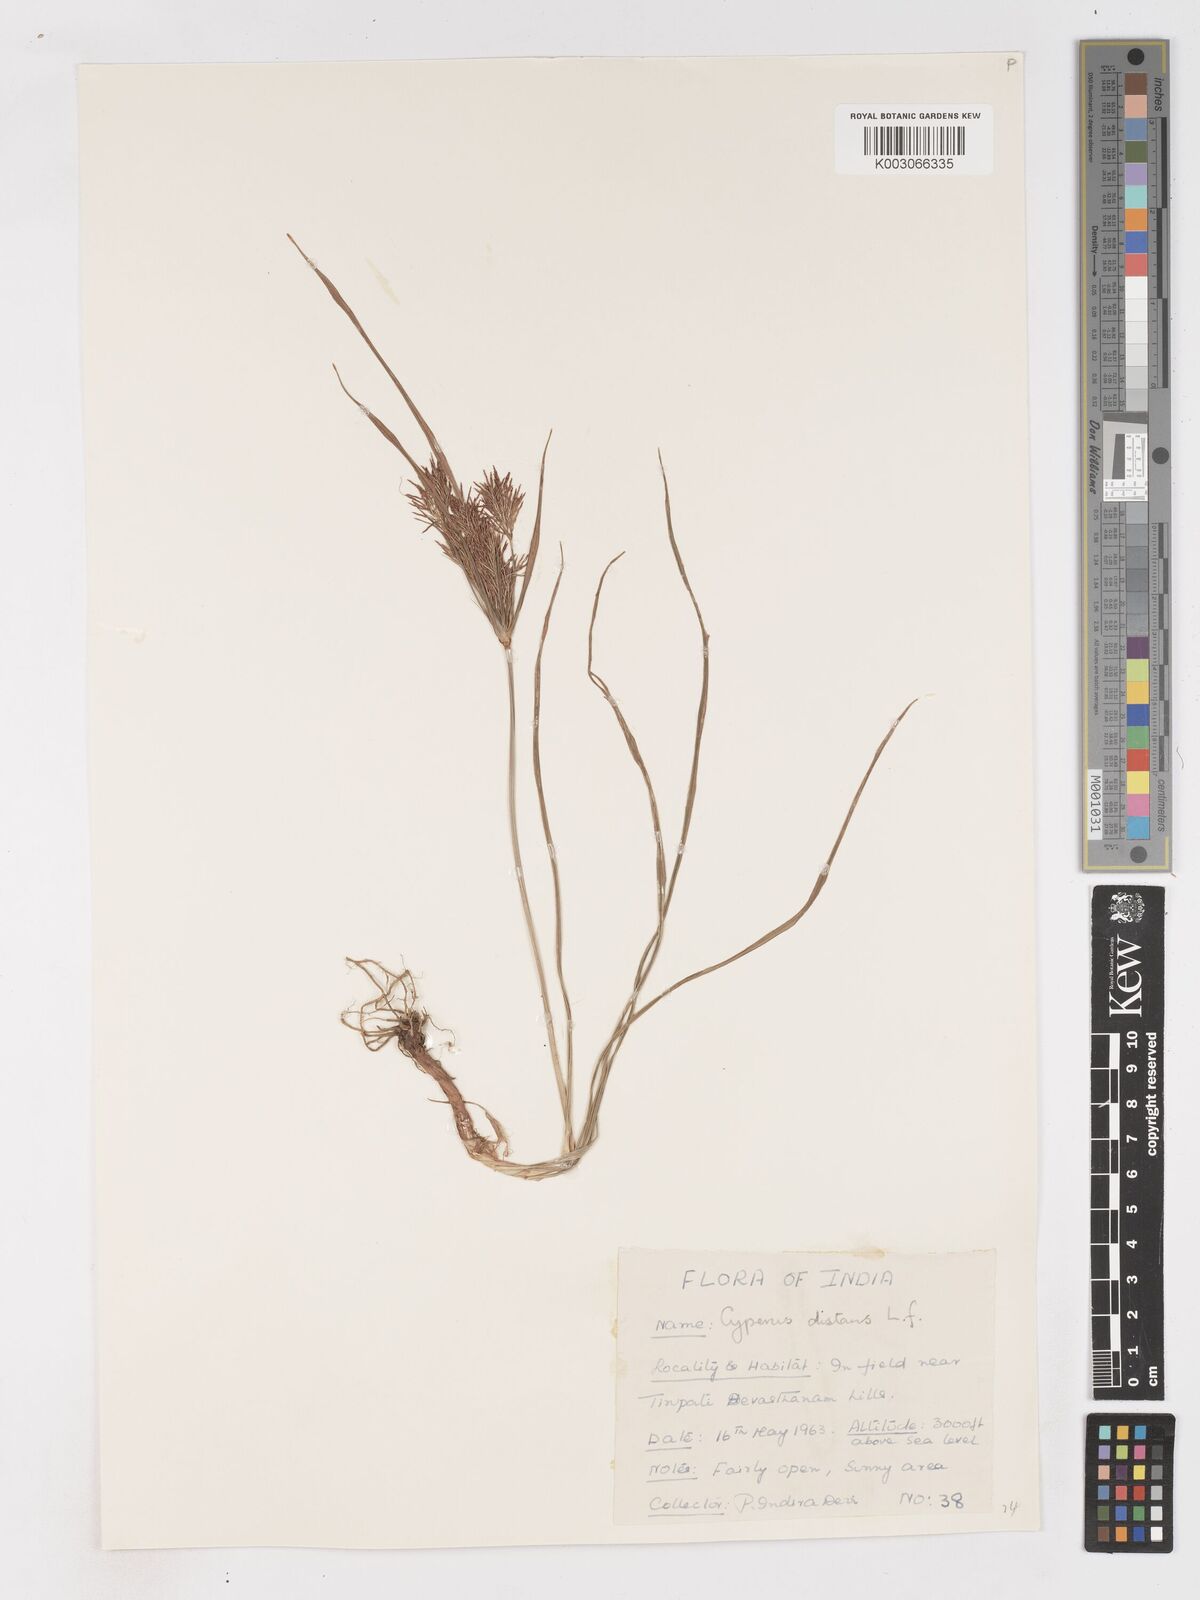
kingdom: Plantae
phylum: Tracheophyta
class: Liliopsida
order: Poales
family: Cyperaceae
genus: Cyperus
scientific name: Cyperus distans
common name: Slender cyperus
